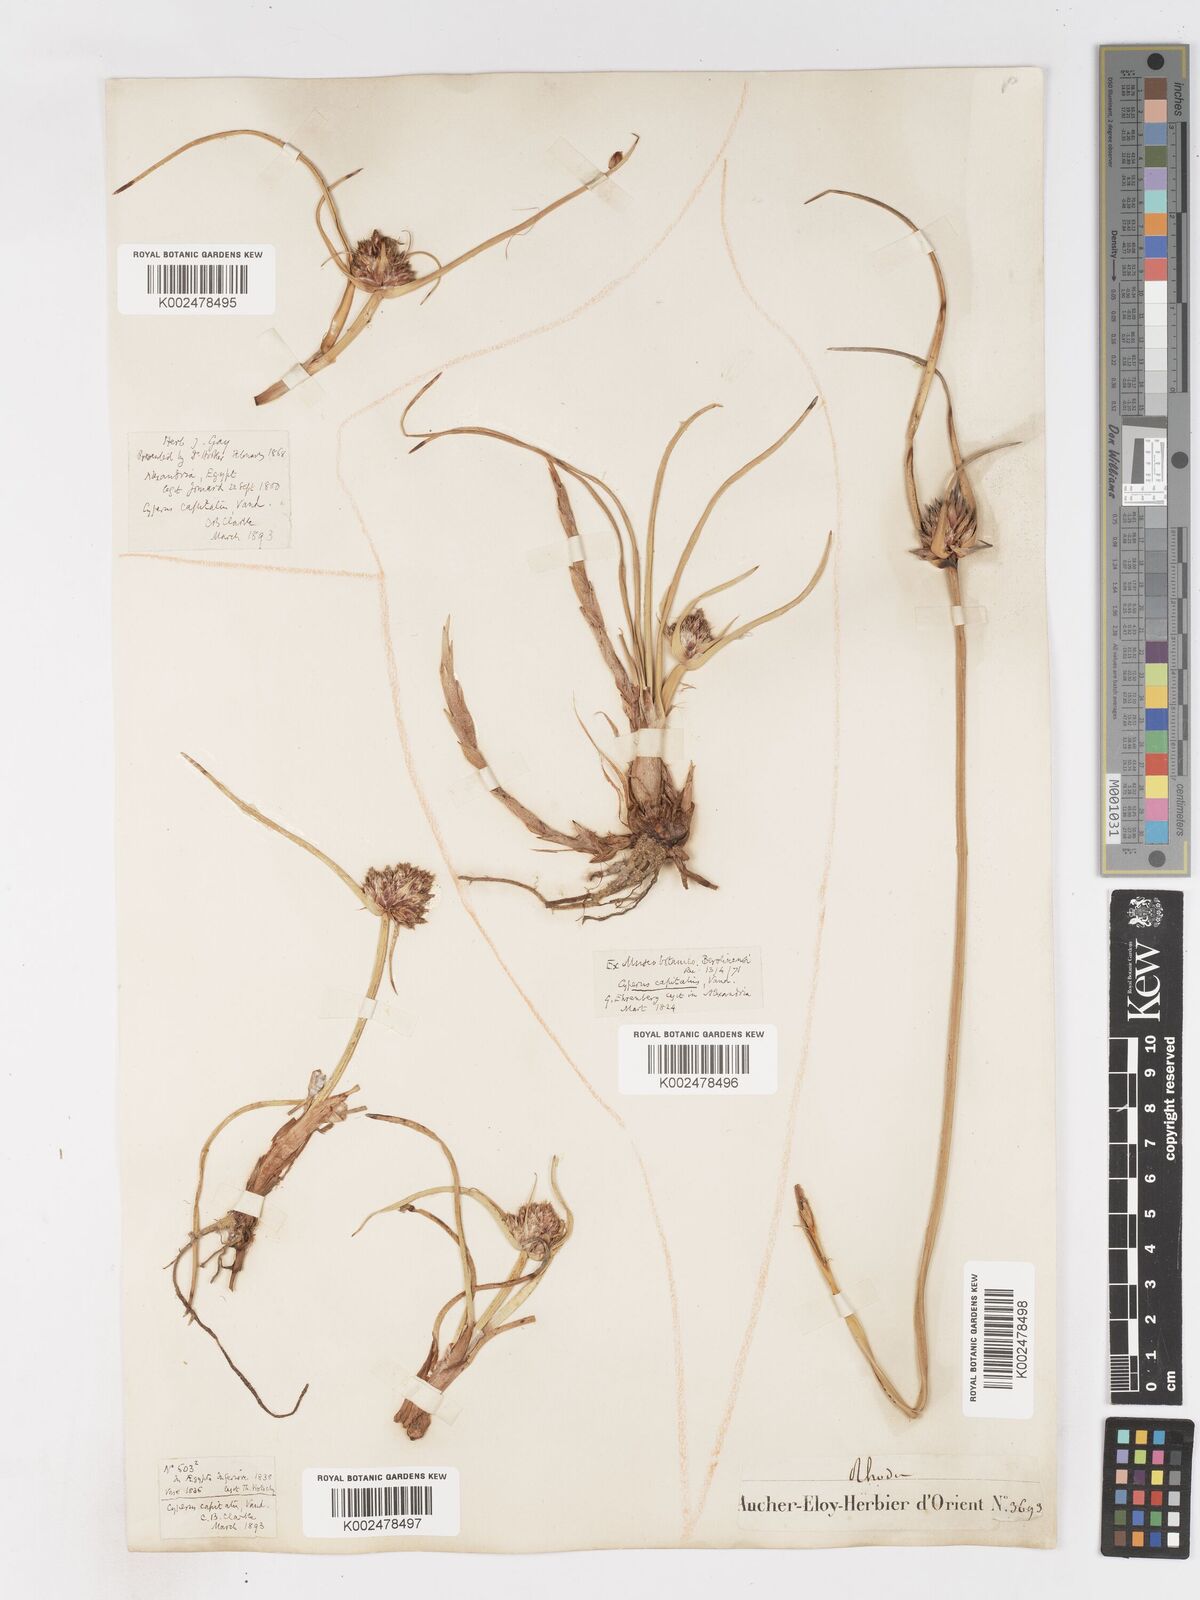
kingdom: Plantae
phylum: Tracheophyta
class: Liliopsida
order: Poales
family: Cyperaceae
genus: Cyperus
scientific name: Cyperus capitatus
